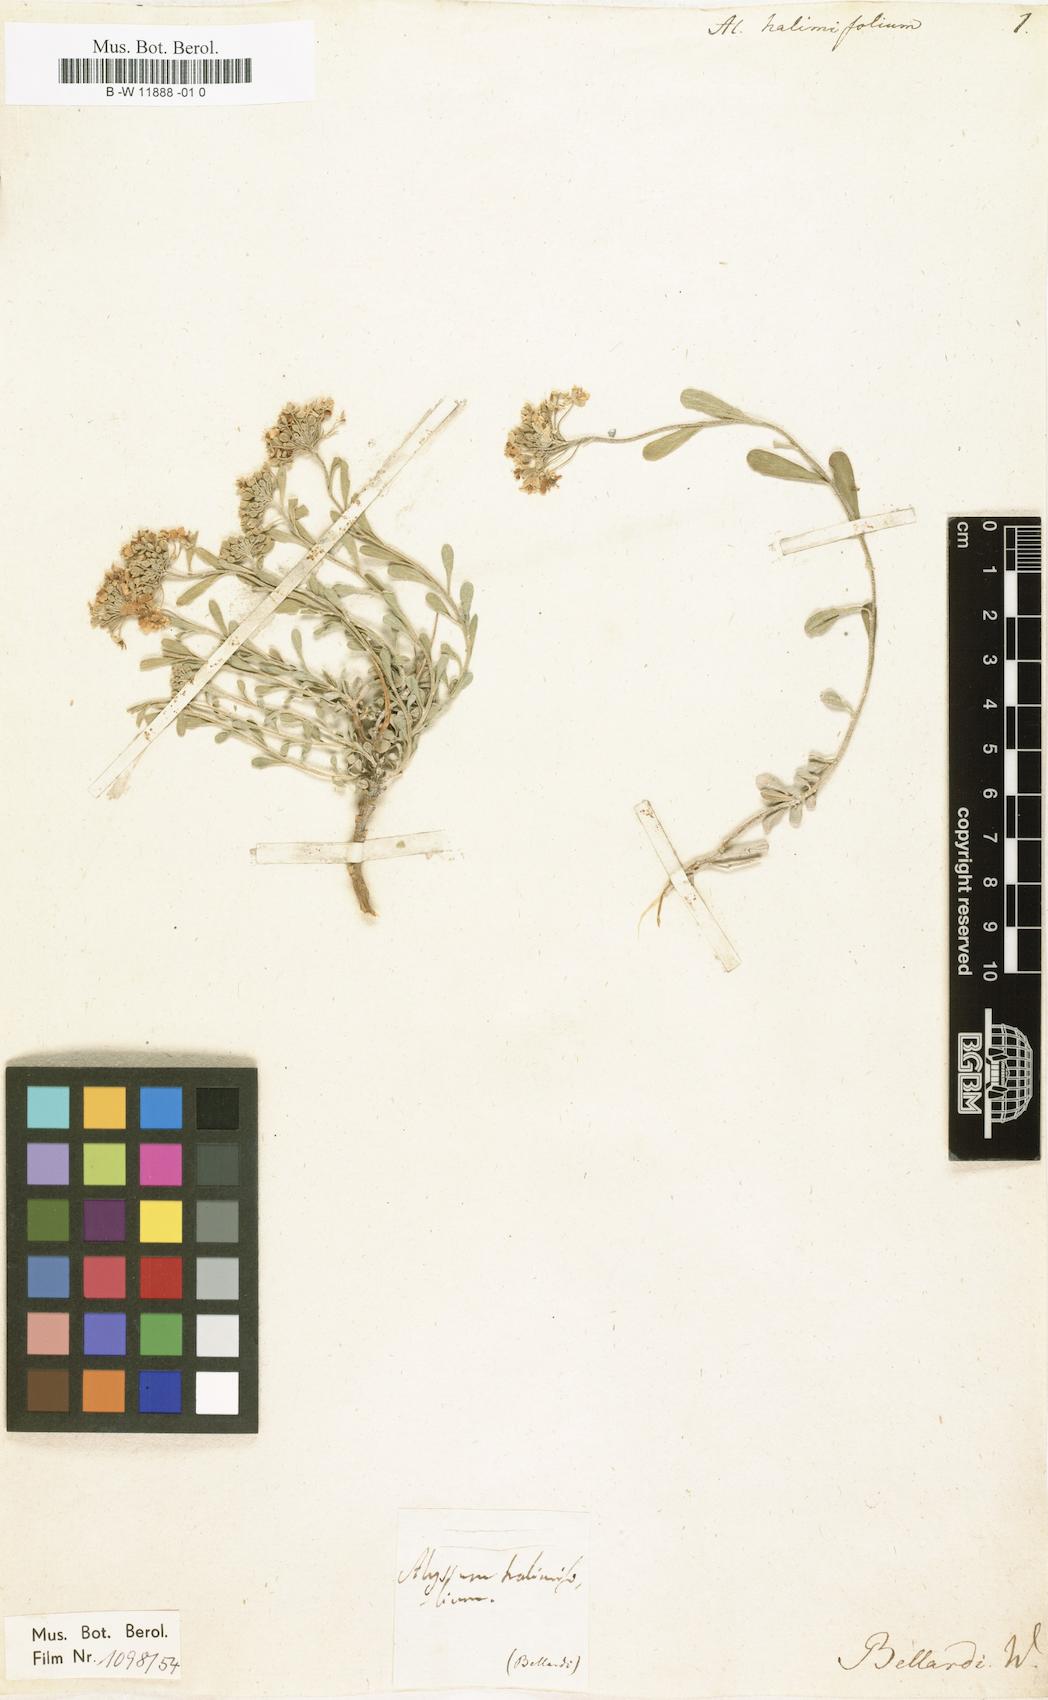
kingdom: Plantae
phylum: Tracheophyta
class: Magnoliopsida
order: Brassicales
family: Brassicaceae
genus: Hormathophylla
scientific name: Hormathophylla ligustica
